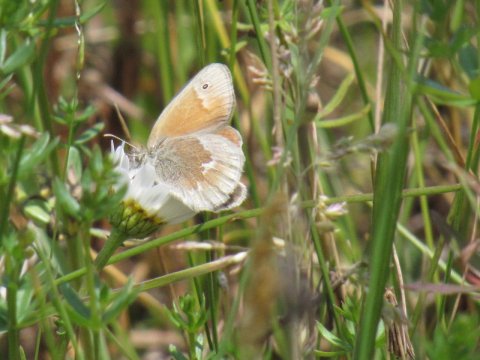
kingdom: Animalia
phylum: Arthropoda
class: Insecta
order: Lepidoptera
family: Nymphalidae
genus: Coenonympha
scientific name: Coenonympha tullia
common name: Large Heath
